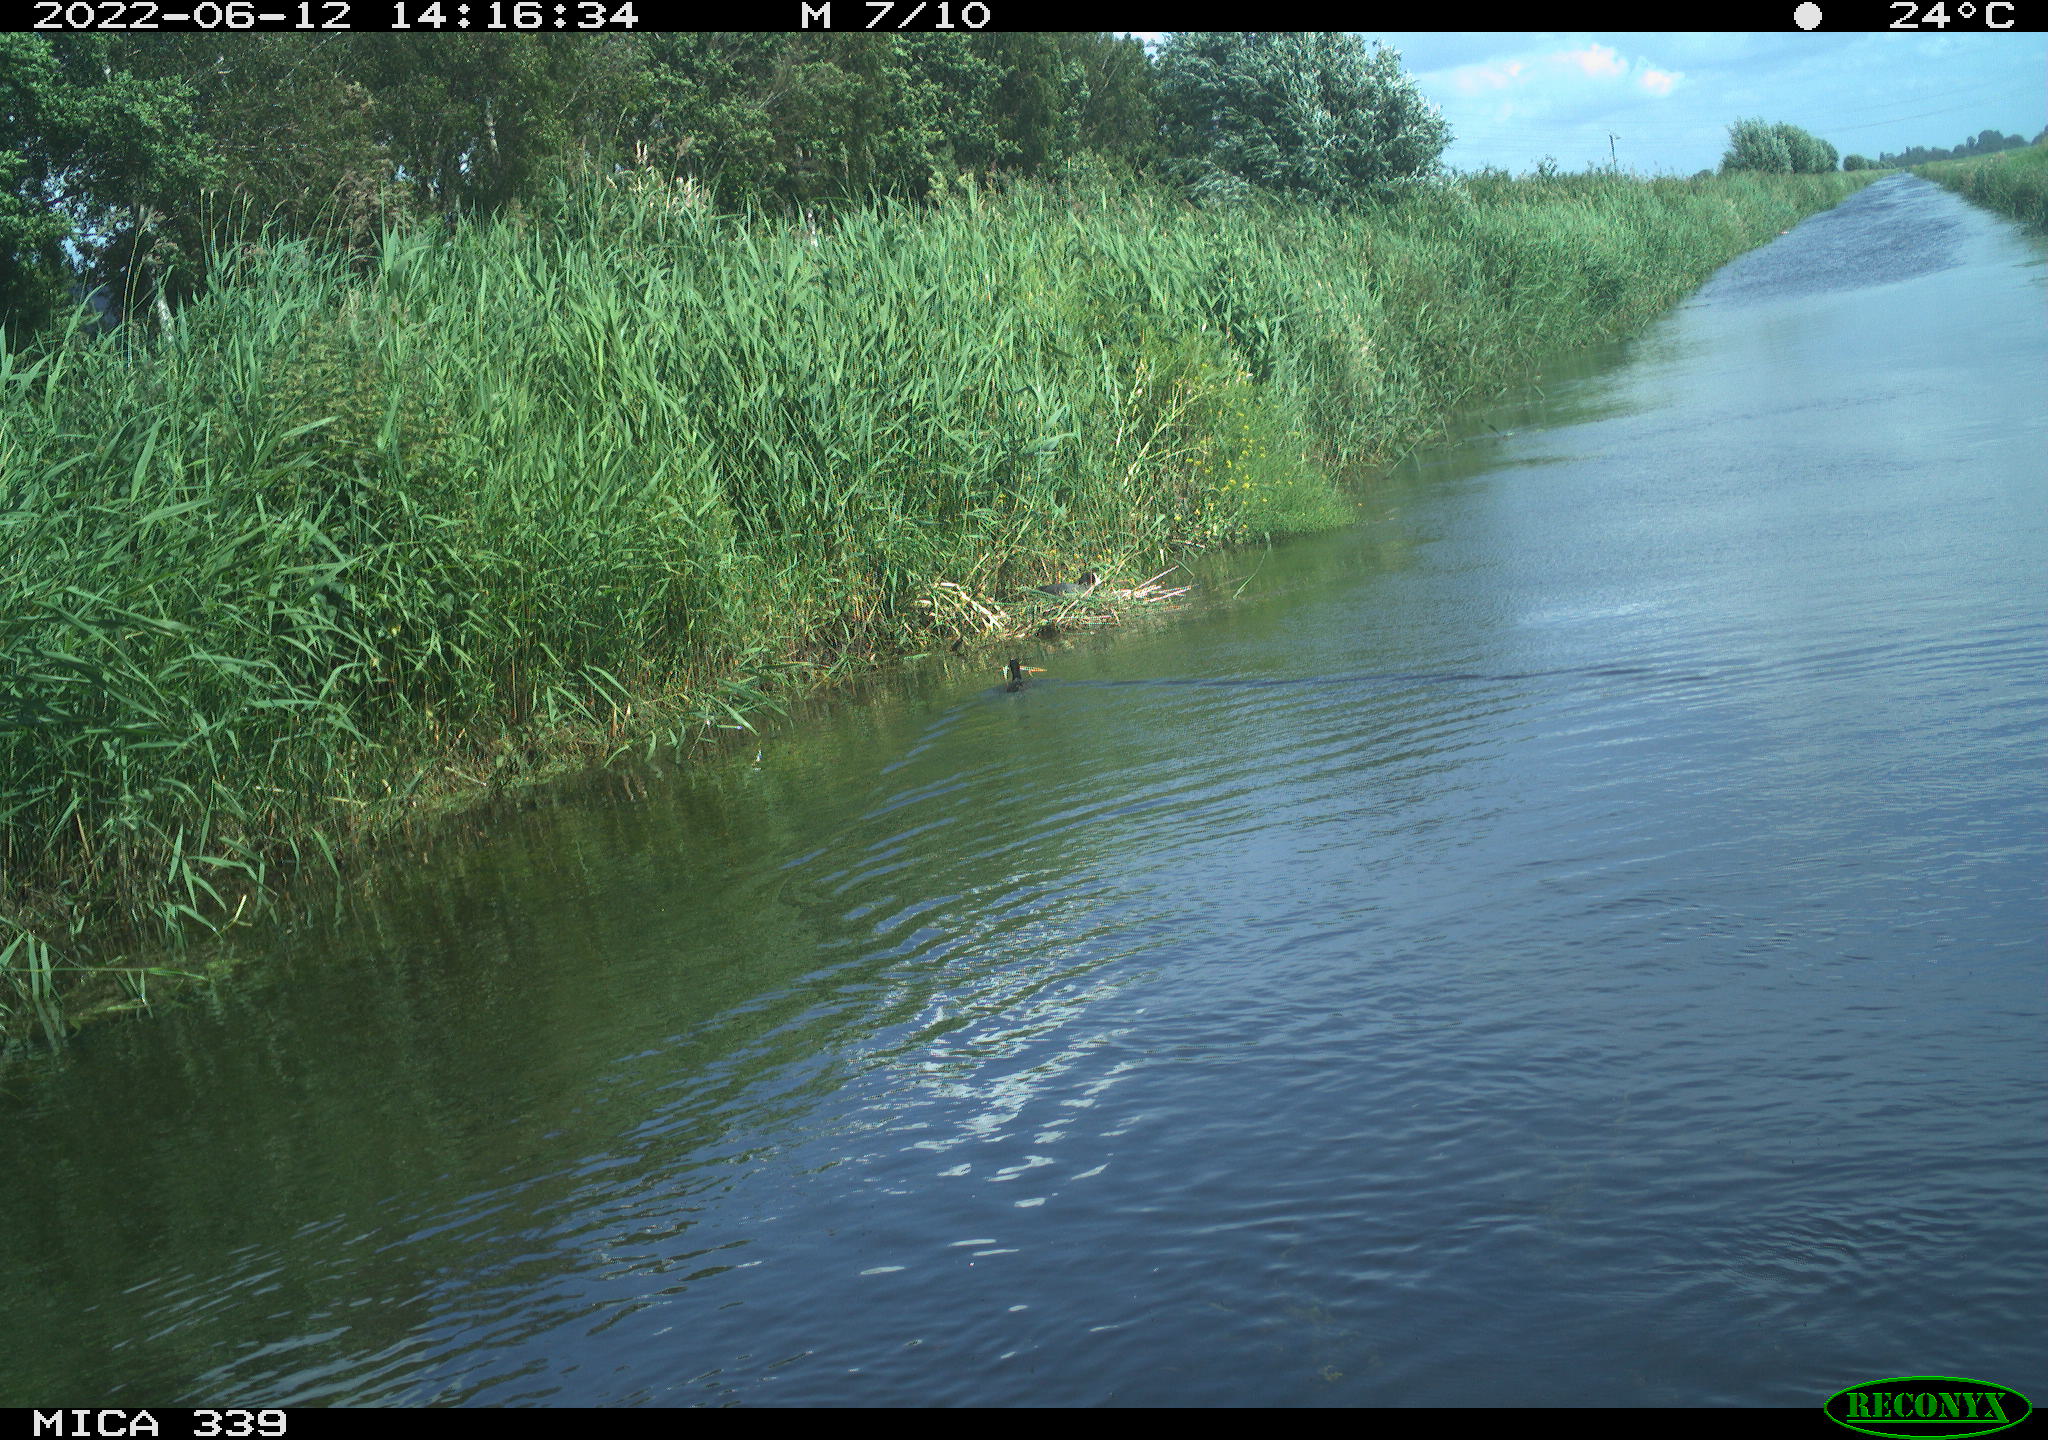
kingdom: Animalia
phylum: Chordata
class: Aves
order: Gruiformes
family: Rallidae
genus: Fulica
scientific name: Fulica atra
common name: Eurasian coot
